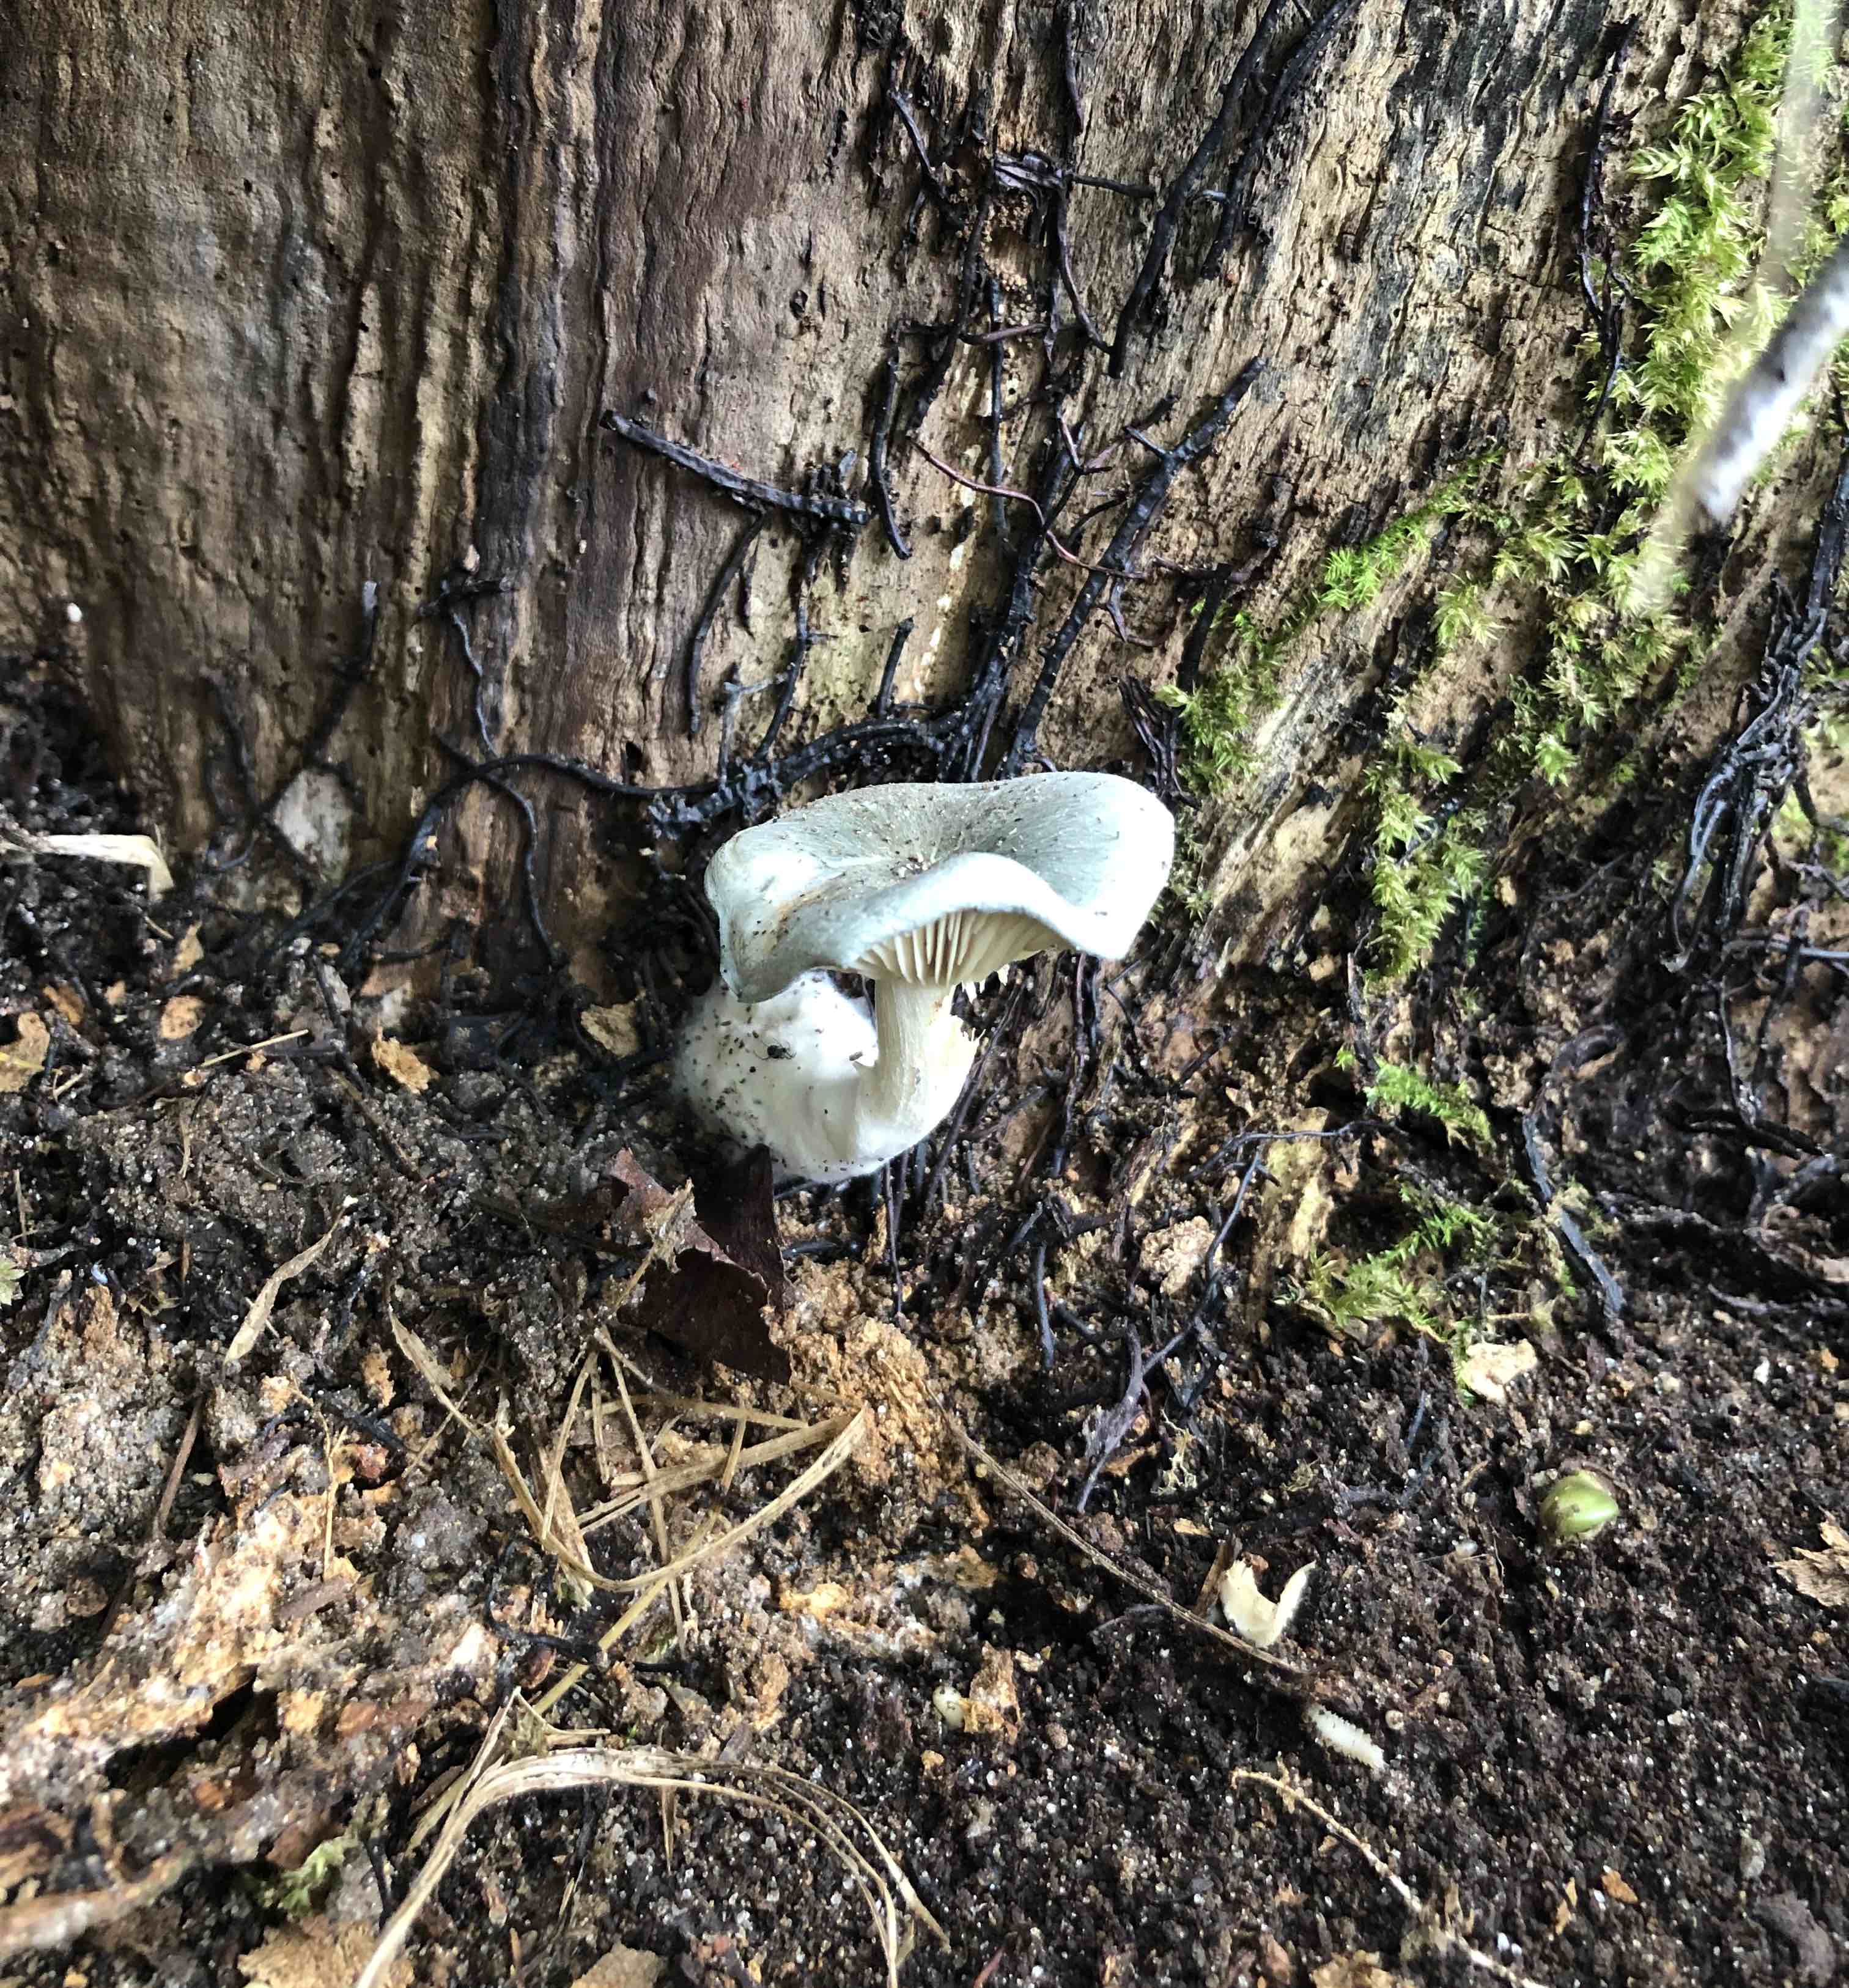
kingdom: Fungi
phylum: Basidiomycota
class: Agaricomycetes
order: Agaricales
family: Tricholomataceae
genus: Clitocybe
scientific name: Clitocybe odora
